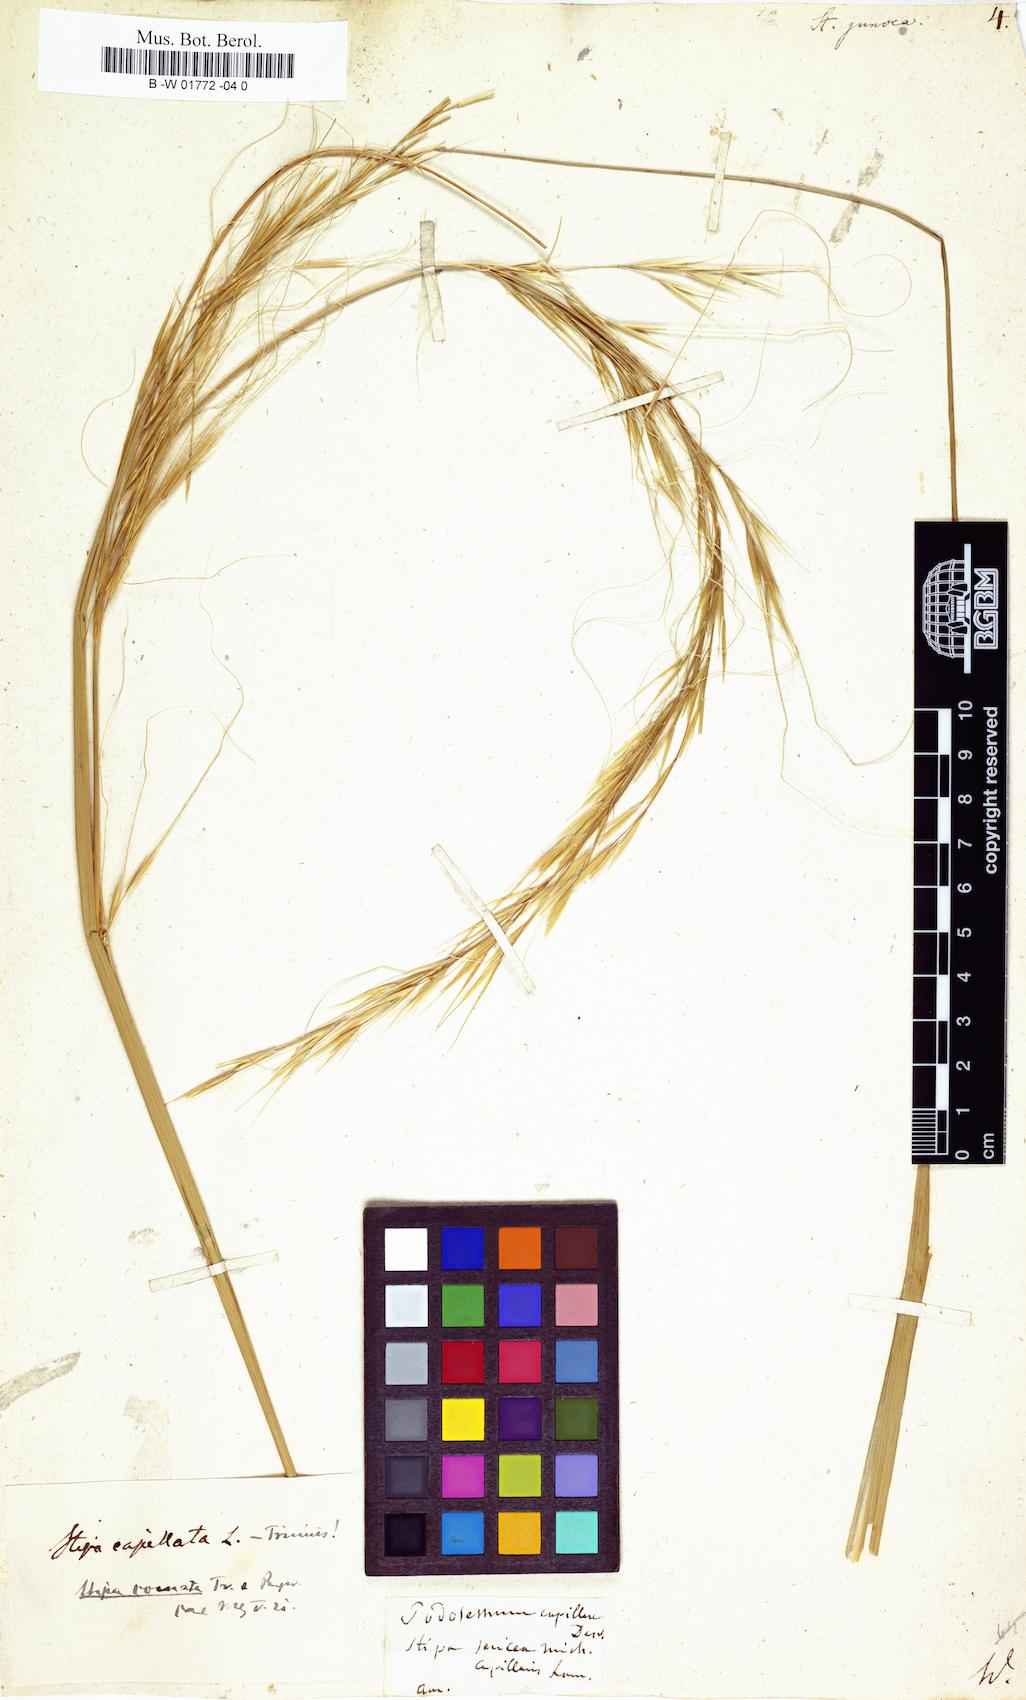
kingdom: Plantae
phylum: Tracheophyta
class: Liliopsida
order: Poales
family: Poaceae
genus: Stipa
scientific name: Stipa juncea
